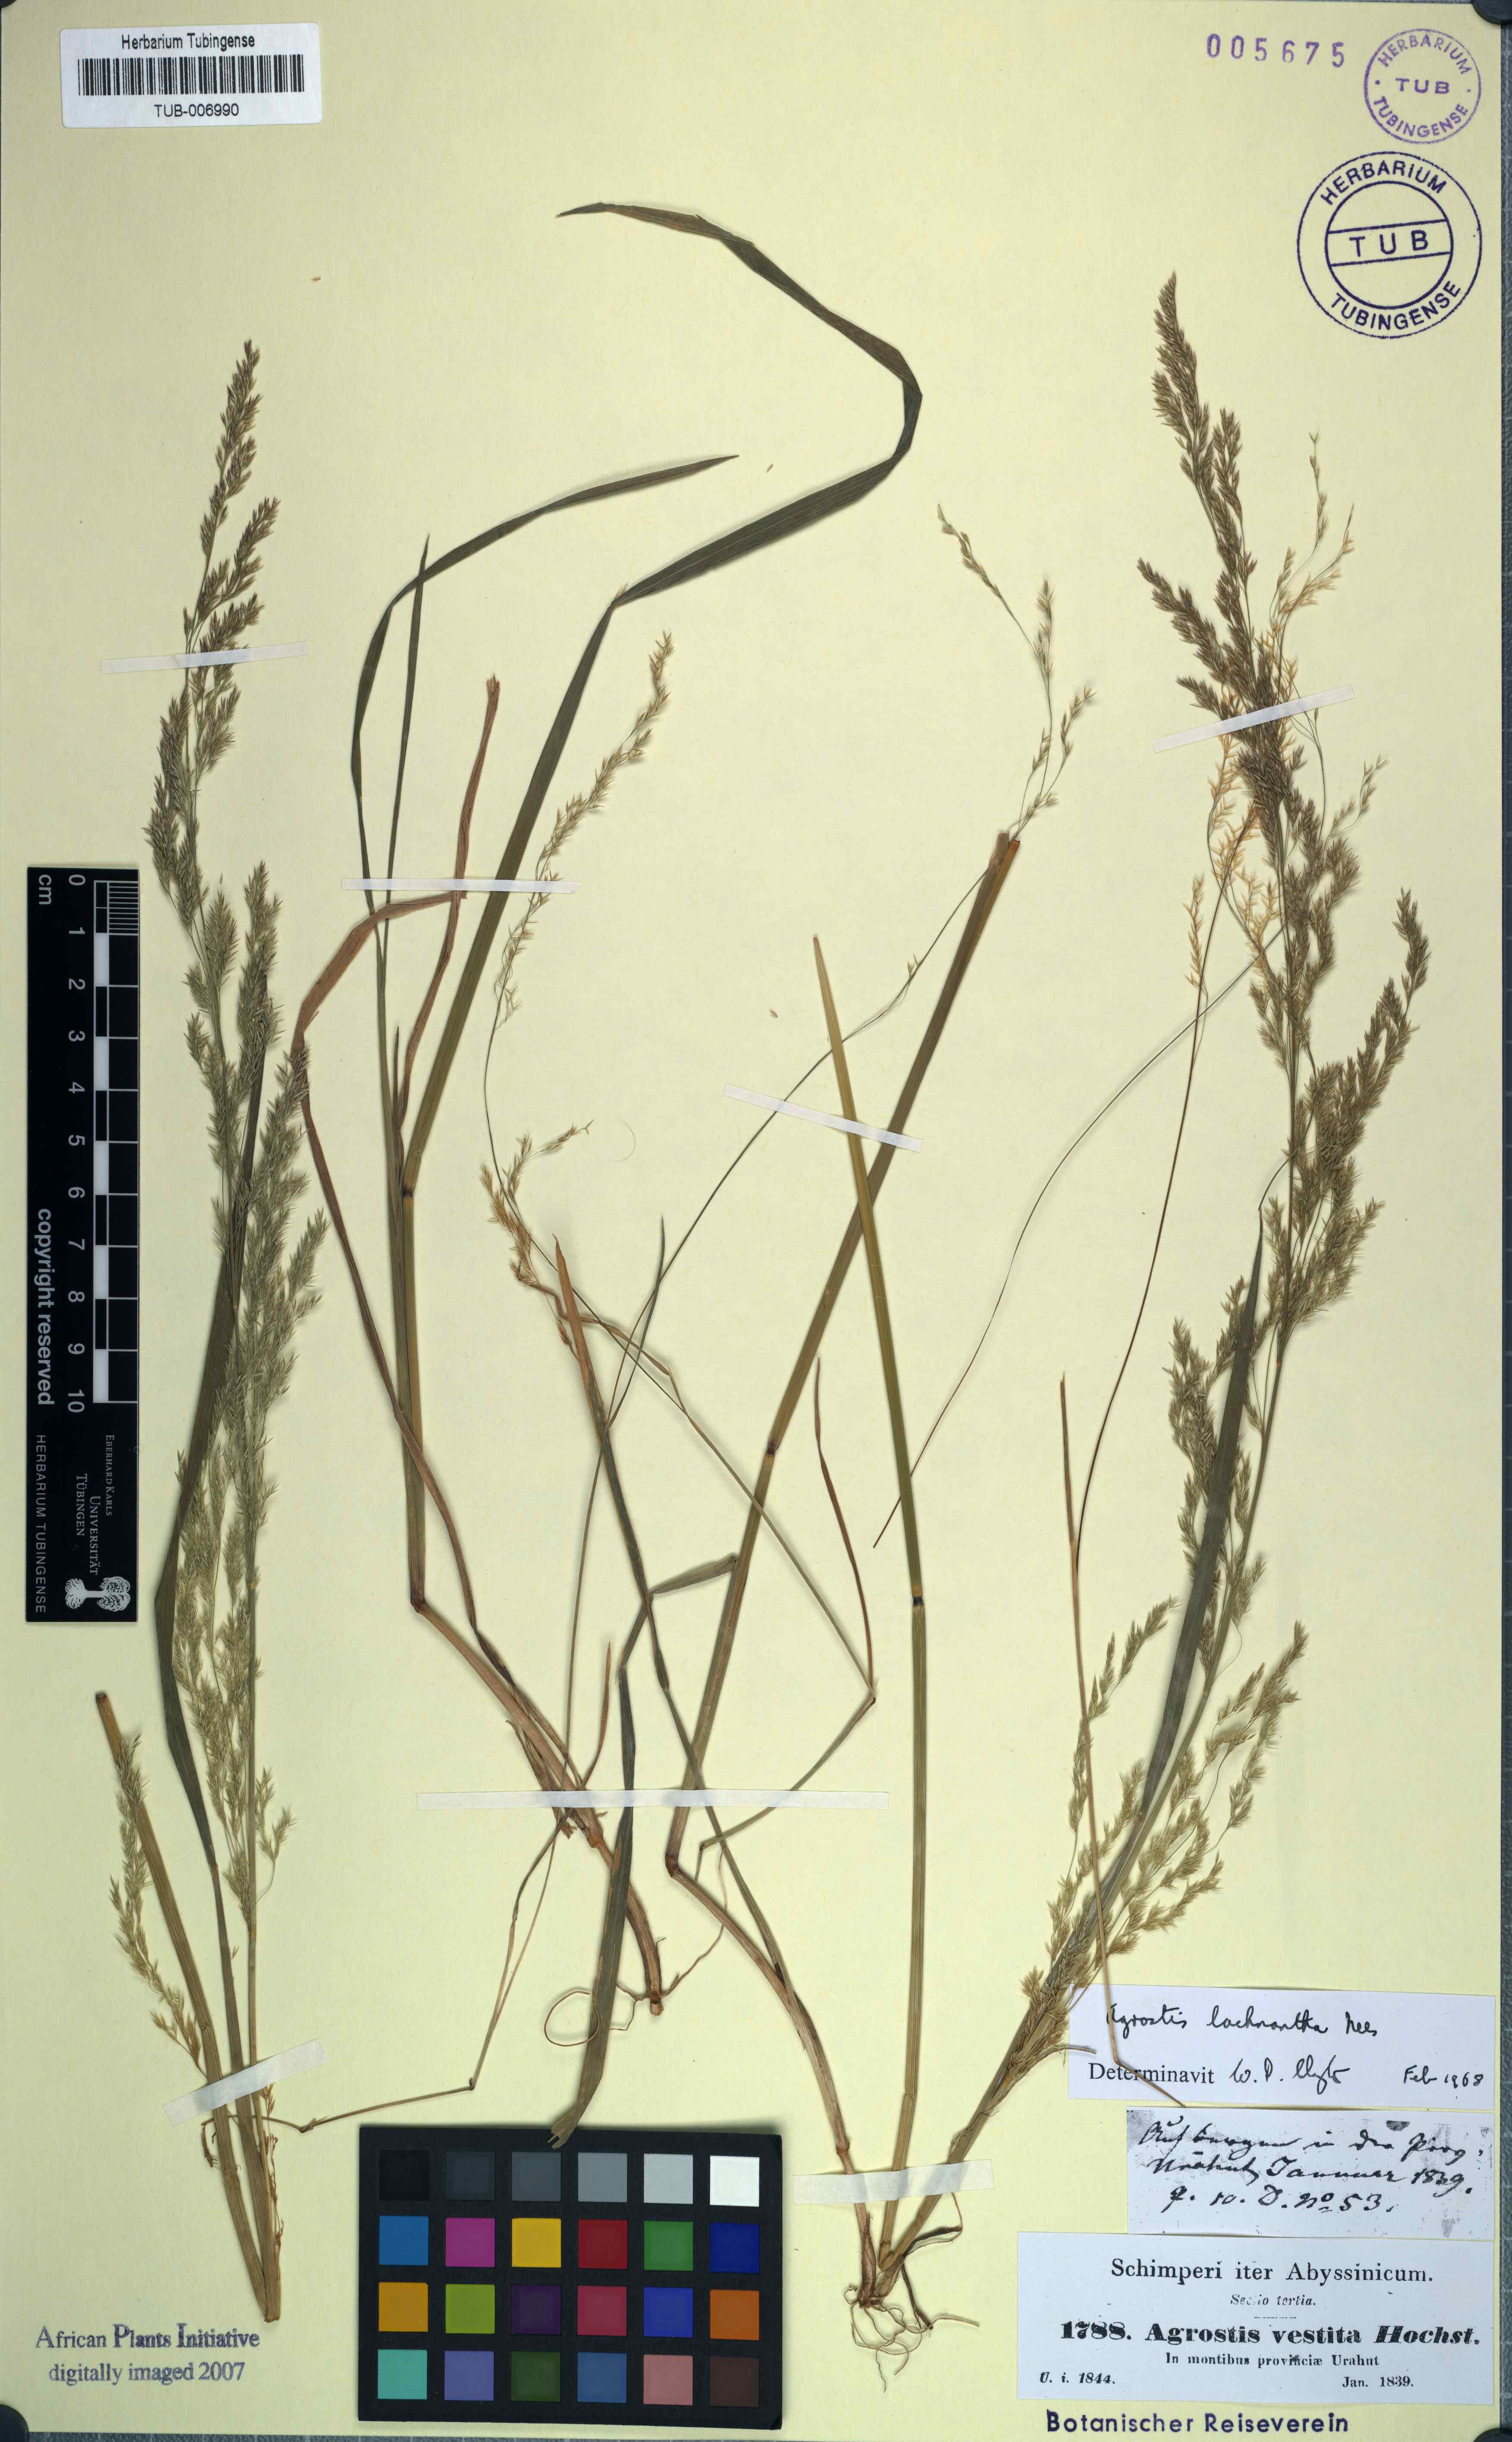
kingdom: Plantae
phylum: Tracheophyta
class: Liliopsida
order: Poales
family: Poaceae
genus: Lachnagrostis
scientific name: Lachnagrostis lachnantha
